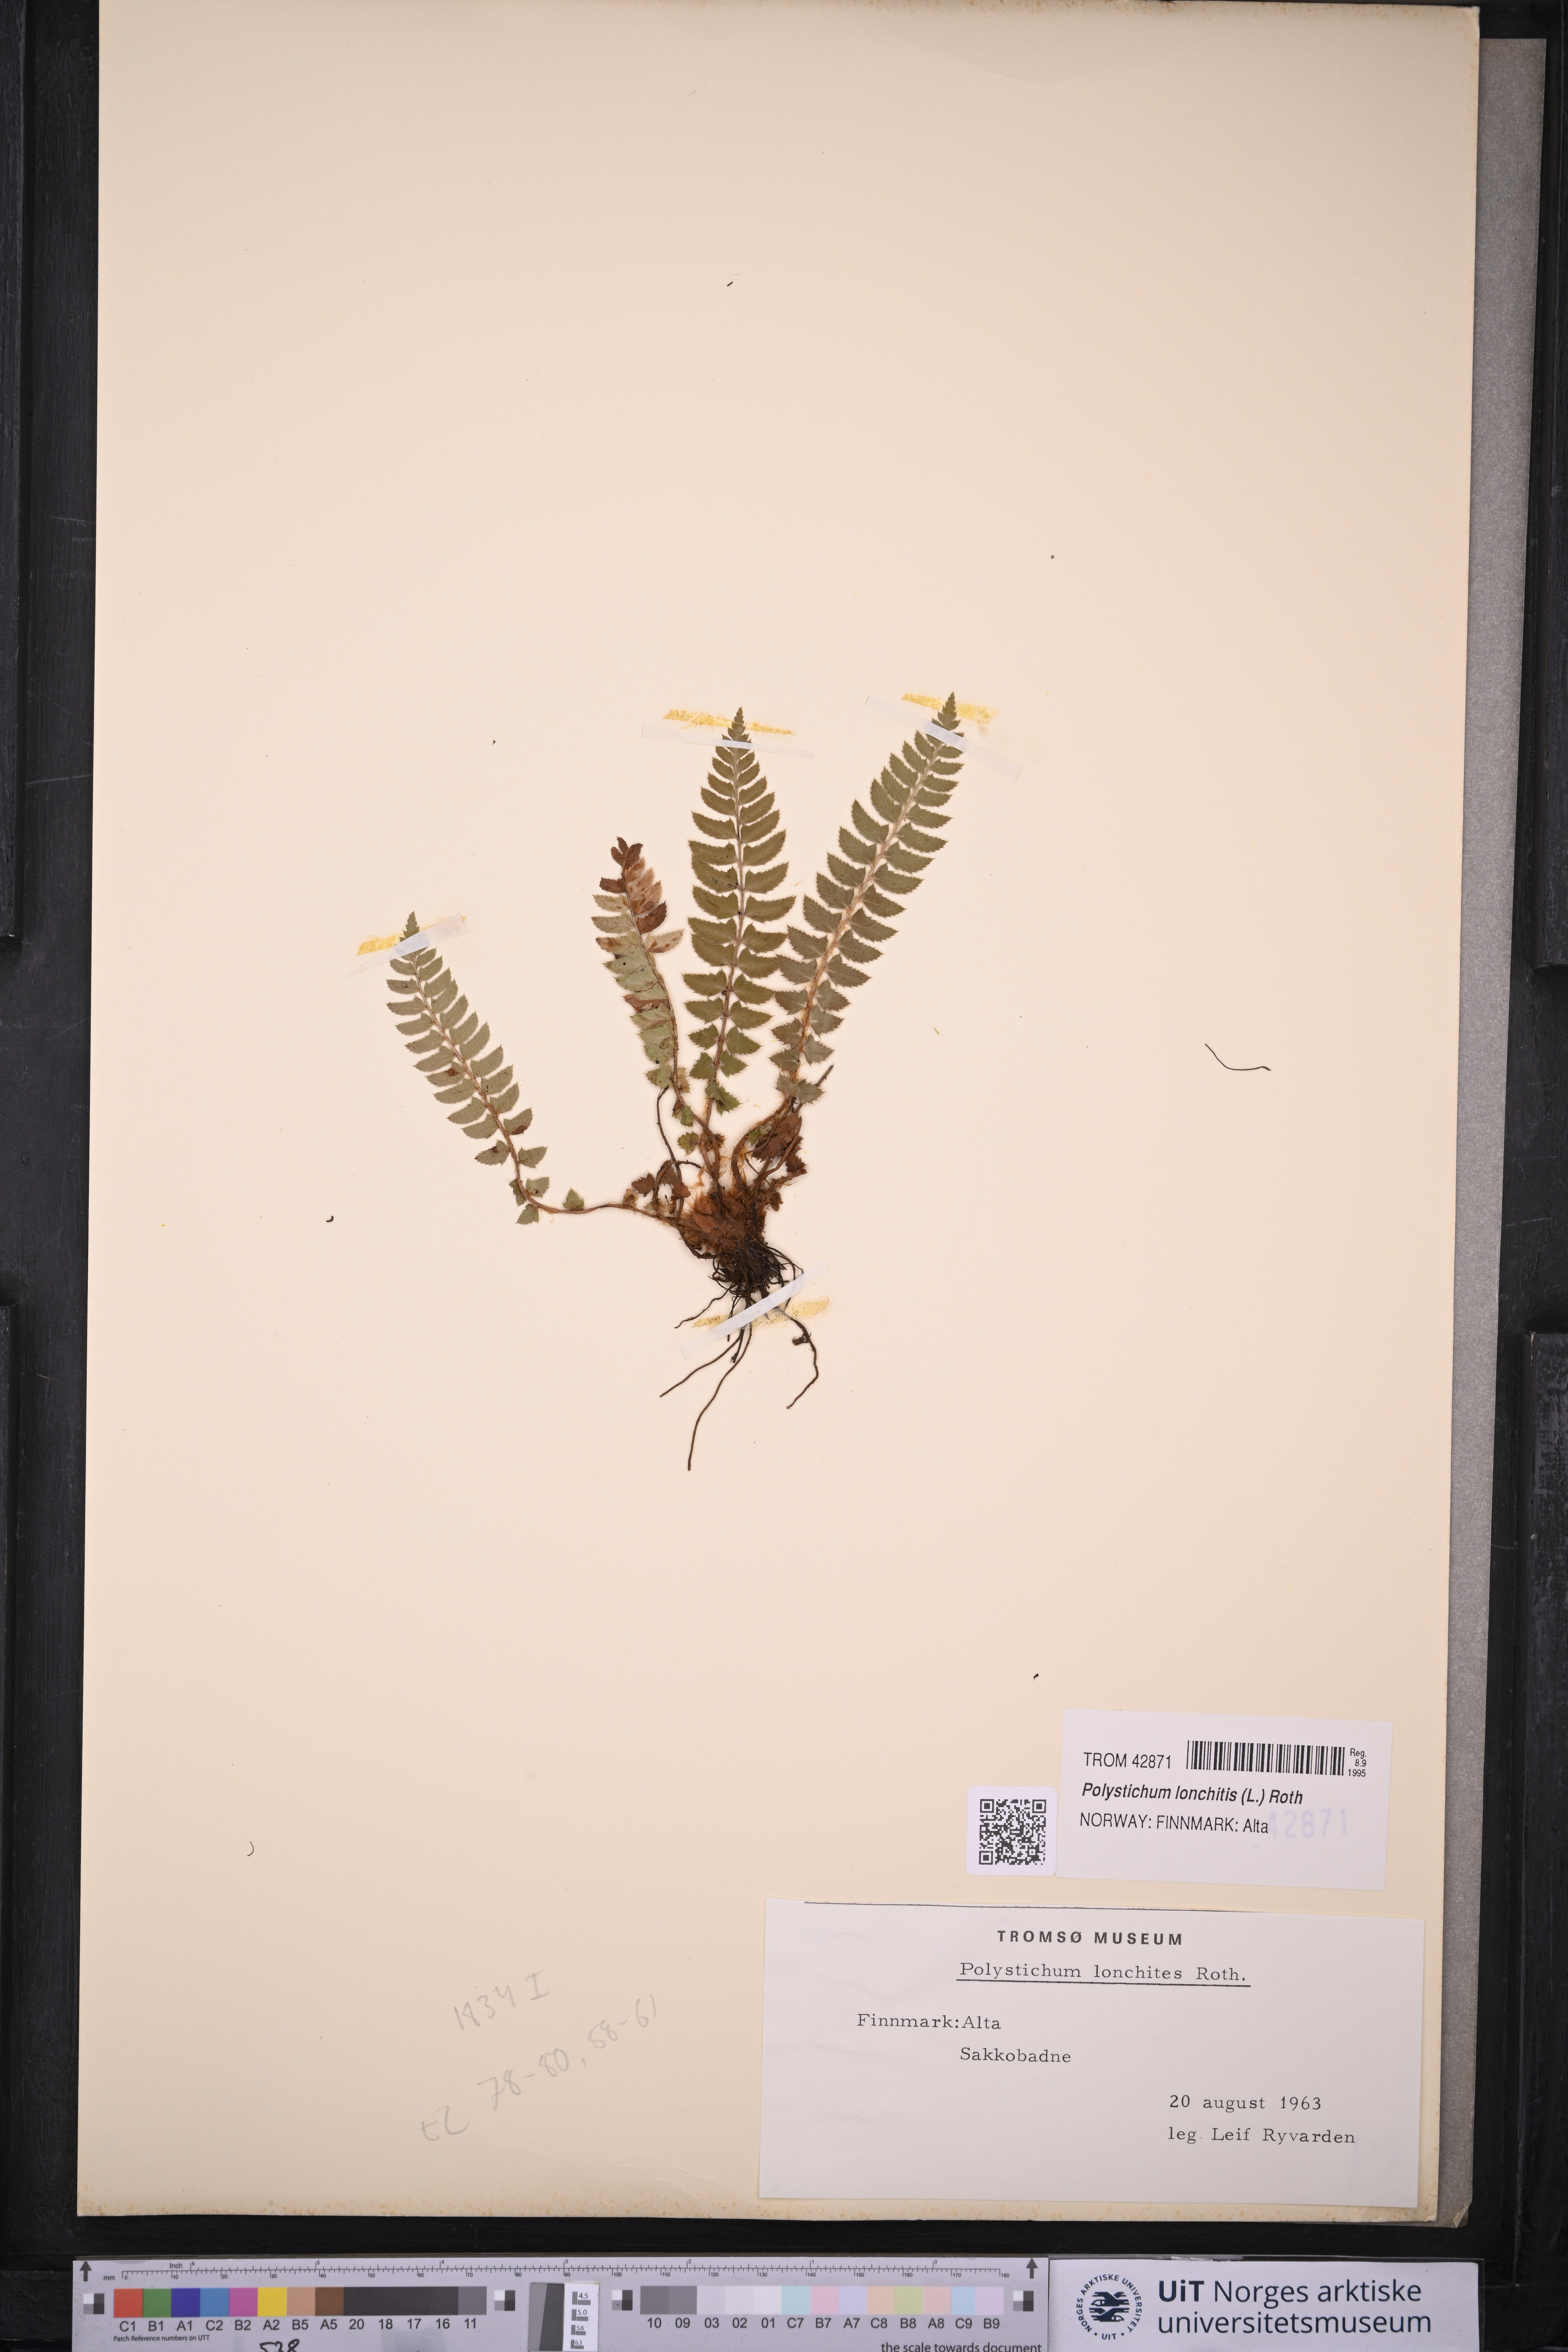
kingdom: Plantae
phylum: Tracheophyta
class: Polypodiopsida
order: Polypodiales
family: Dryopteridaceae
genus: Polystichum
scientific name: Polystichum lonchitis
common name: Holly fern
